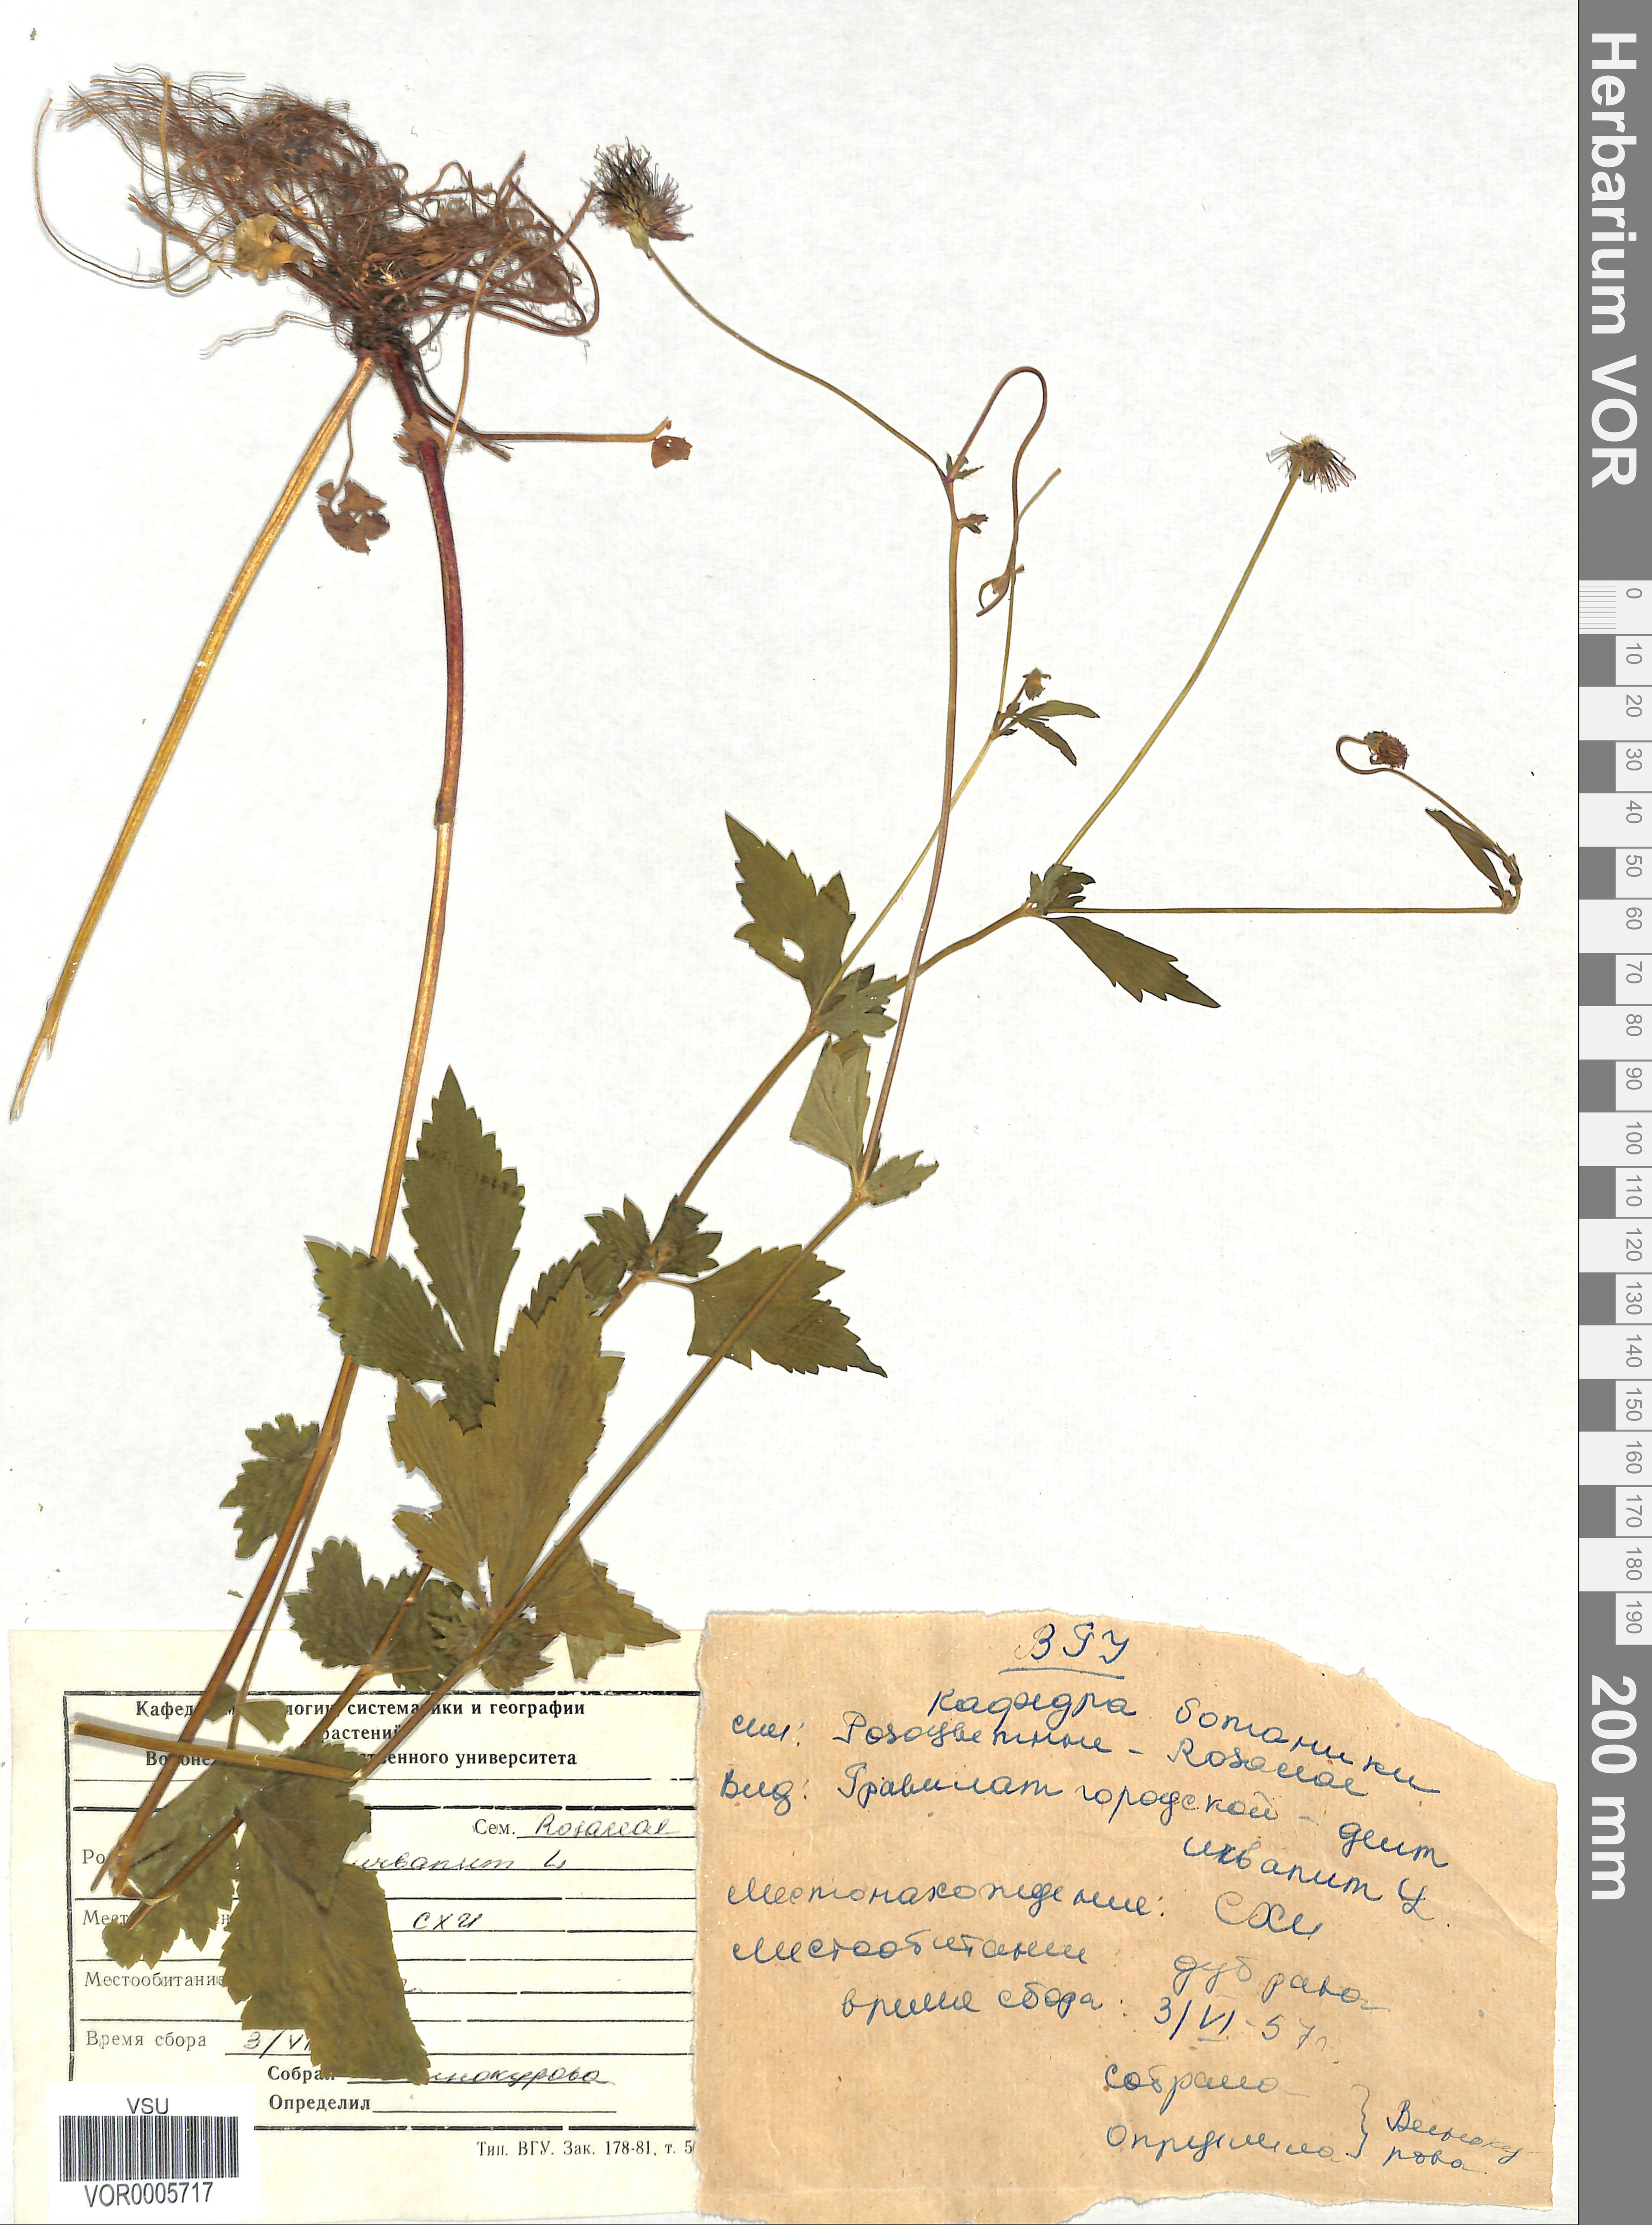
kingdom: Plantae
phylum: Tracheophyta
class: Magnoliopsida
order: Rosales
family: Rosaceae
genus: Geum
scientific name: Geum urbanum
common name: Wood avens
